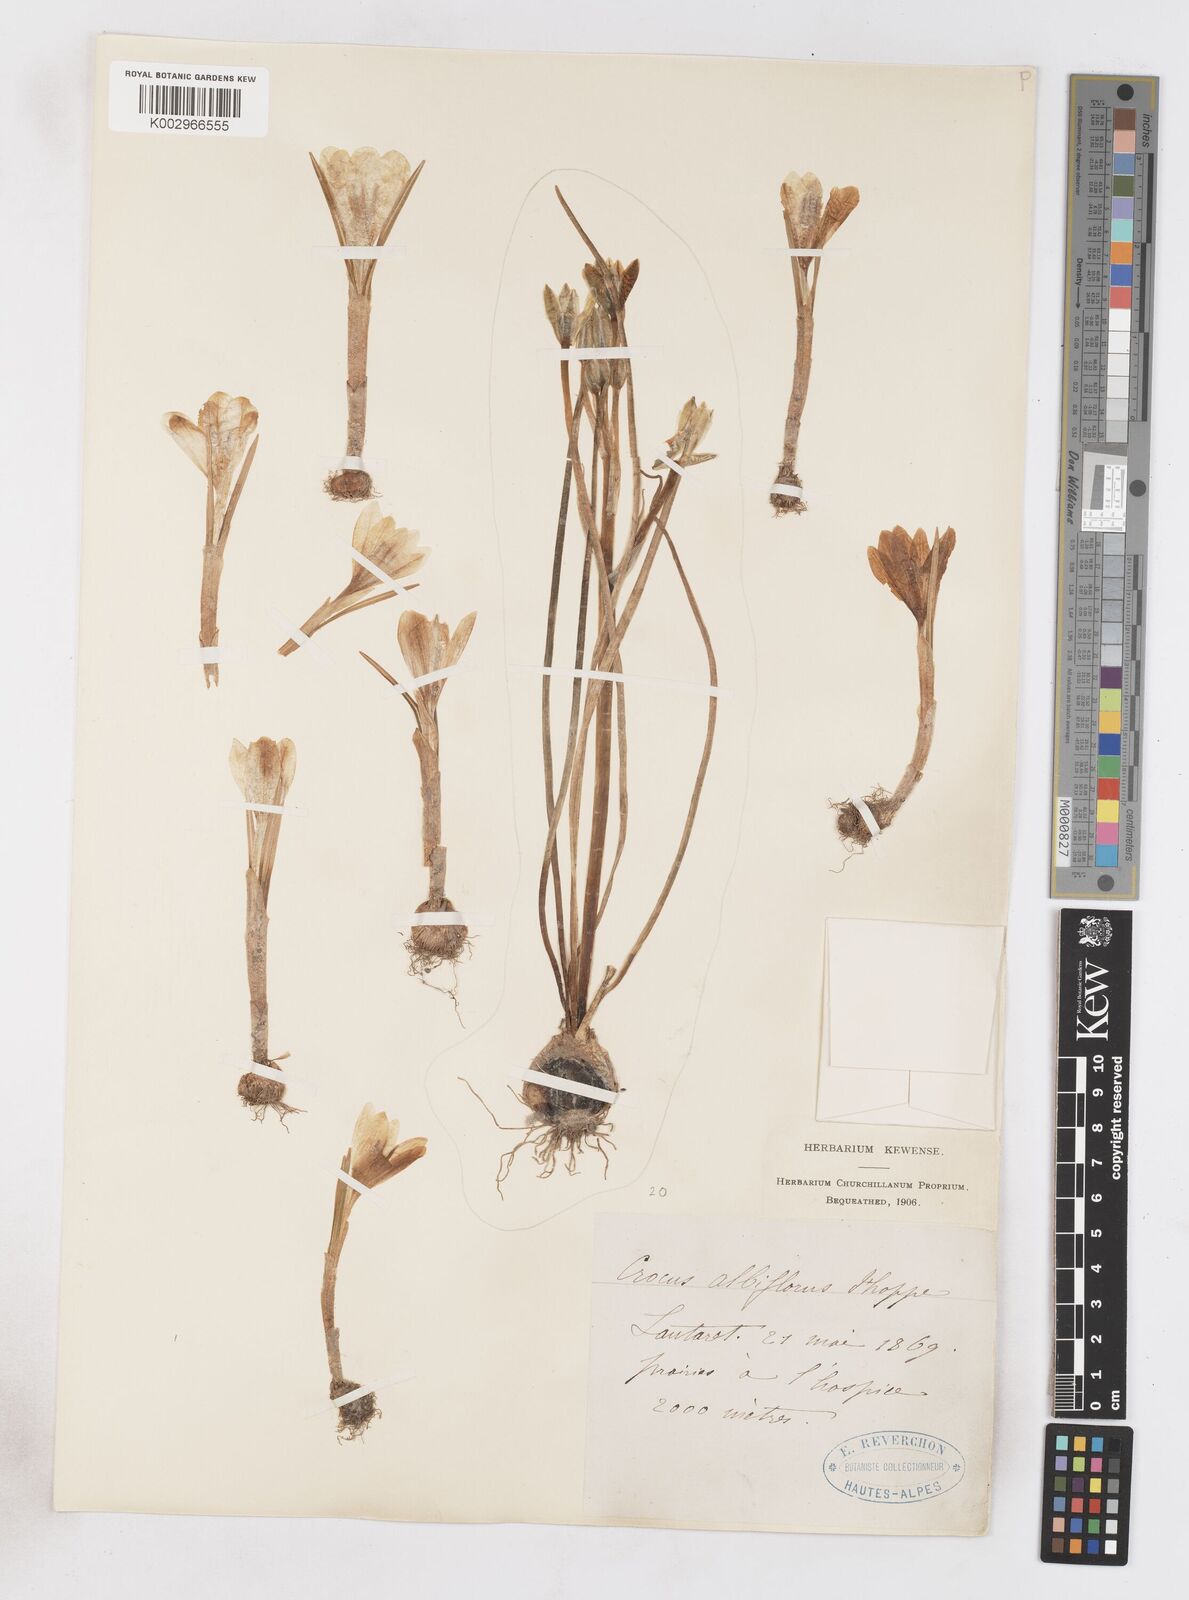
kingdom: Plantae
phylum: Tracheophyta
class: Liliopsida
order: Asparagales
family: Iridaceae
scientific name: Iridaceae
